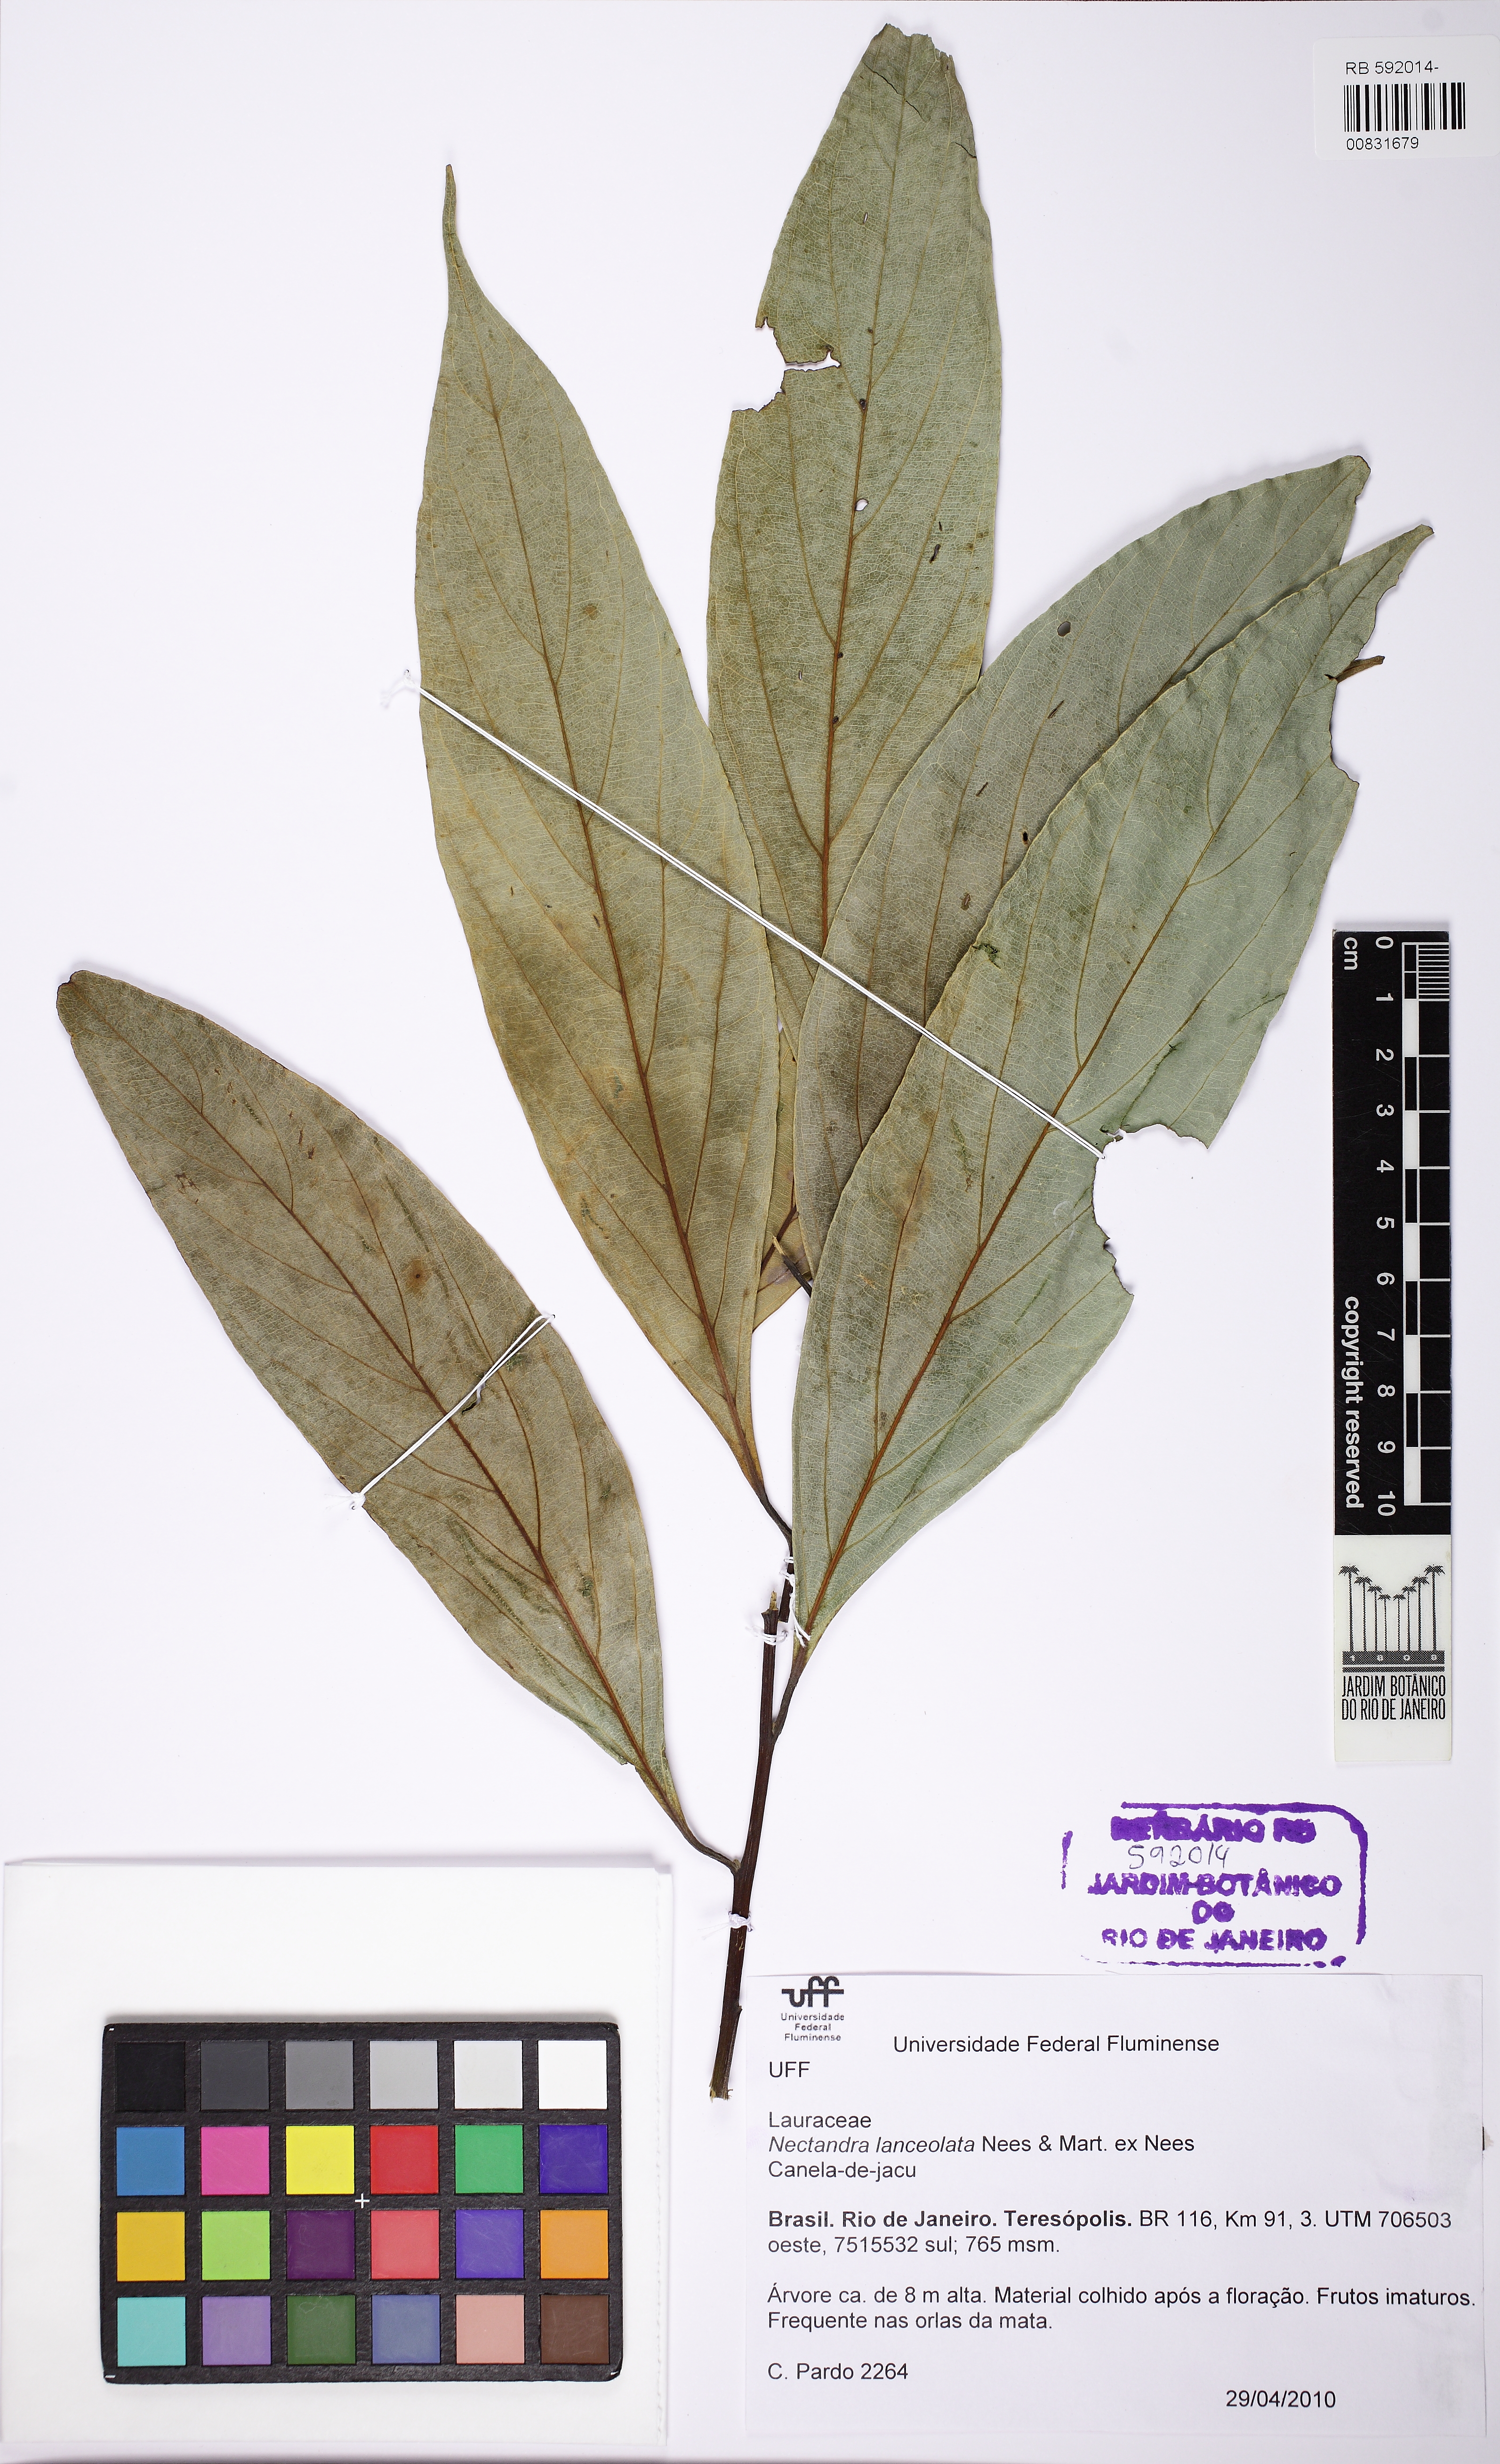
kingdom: Plantae
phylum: Tracheophyta
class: Magnoliopsida
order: Laurales
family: Lauraceae
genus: Nectandra
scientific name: Nectandra lanceolata
